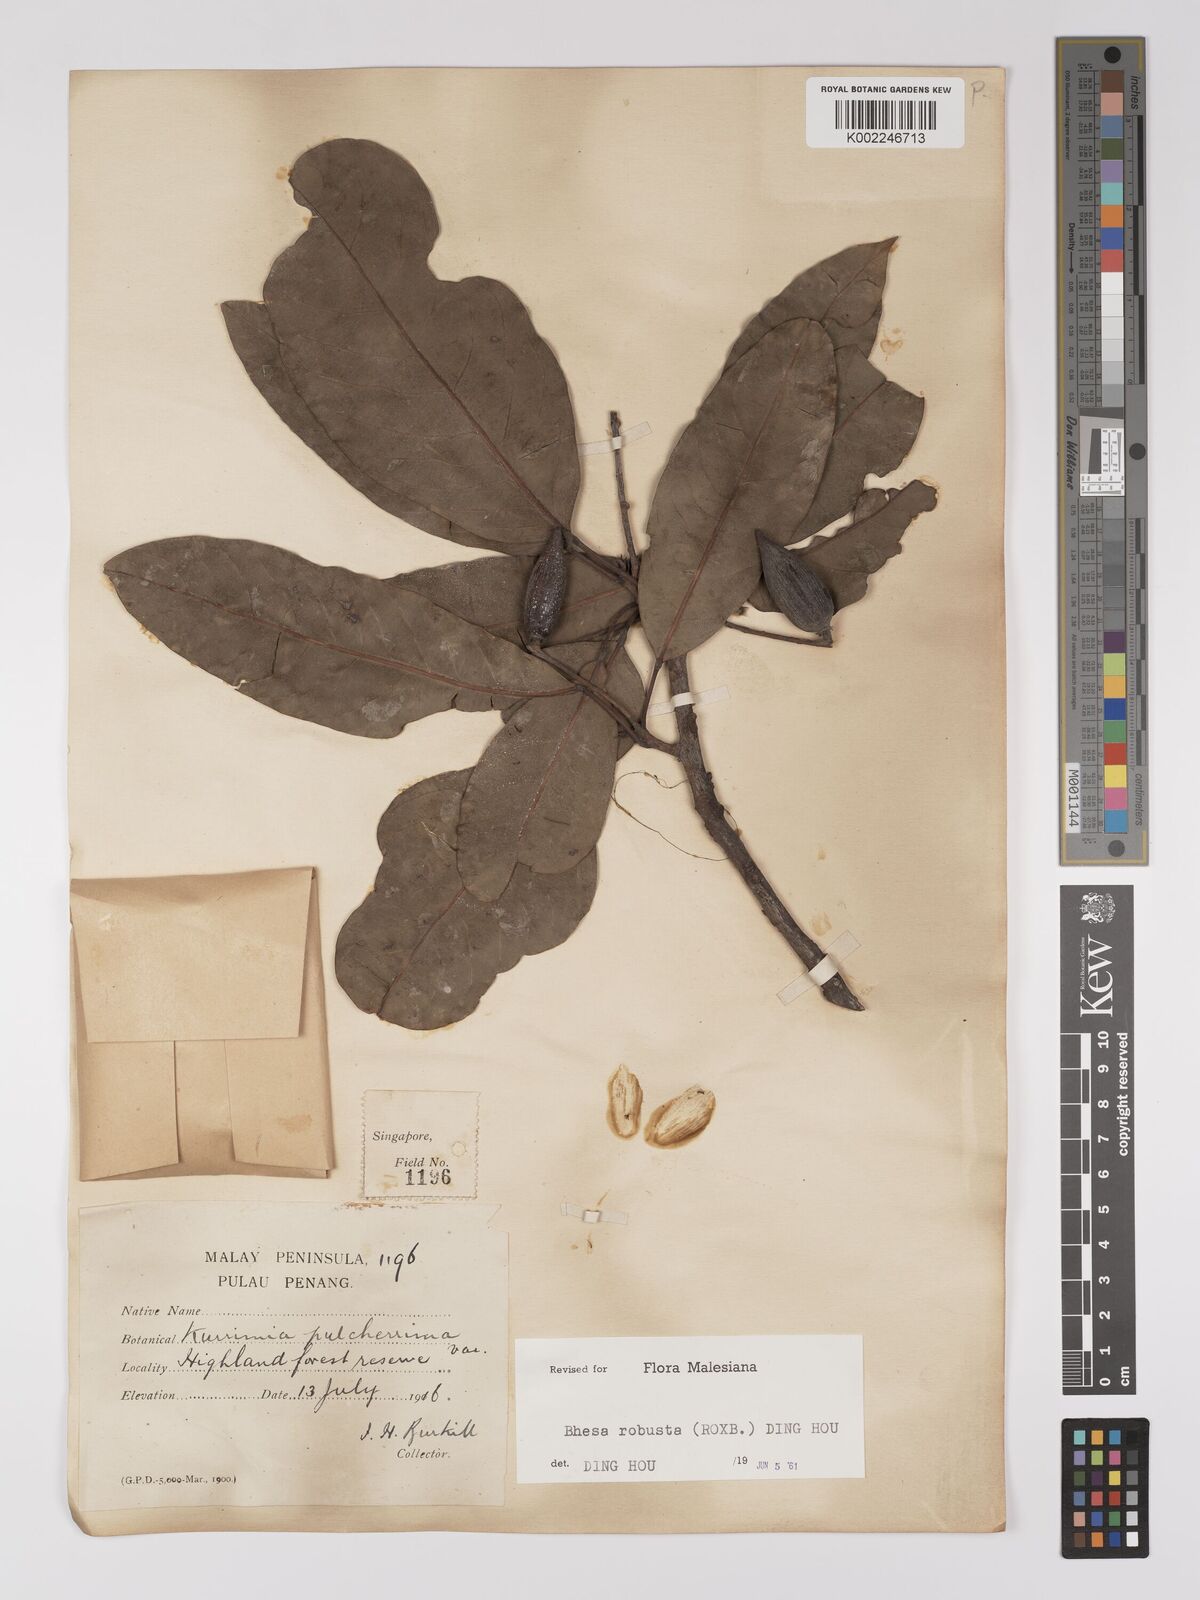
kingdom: Plantae
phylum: Tracheophyta
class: Magnoliopsida
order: Malpighiales
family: Centroplacaceae
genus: Bhesa
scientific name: Bhesa robusta
